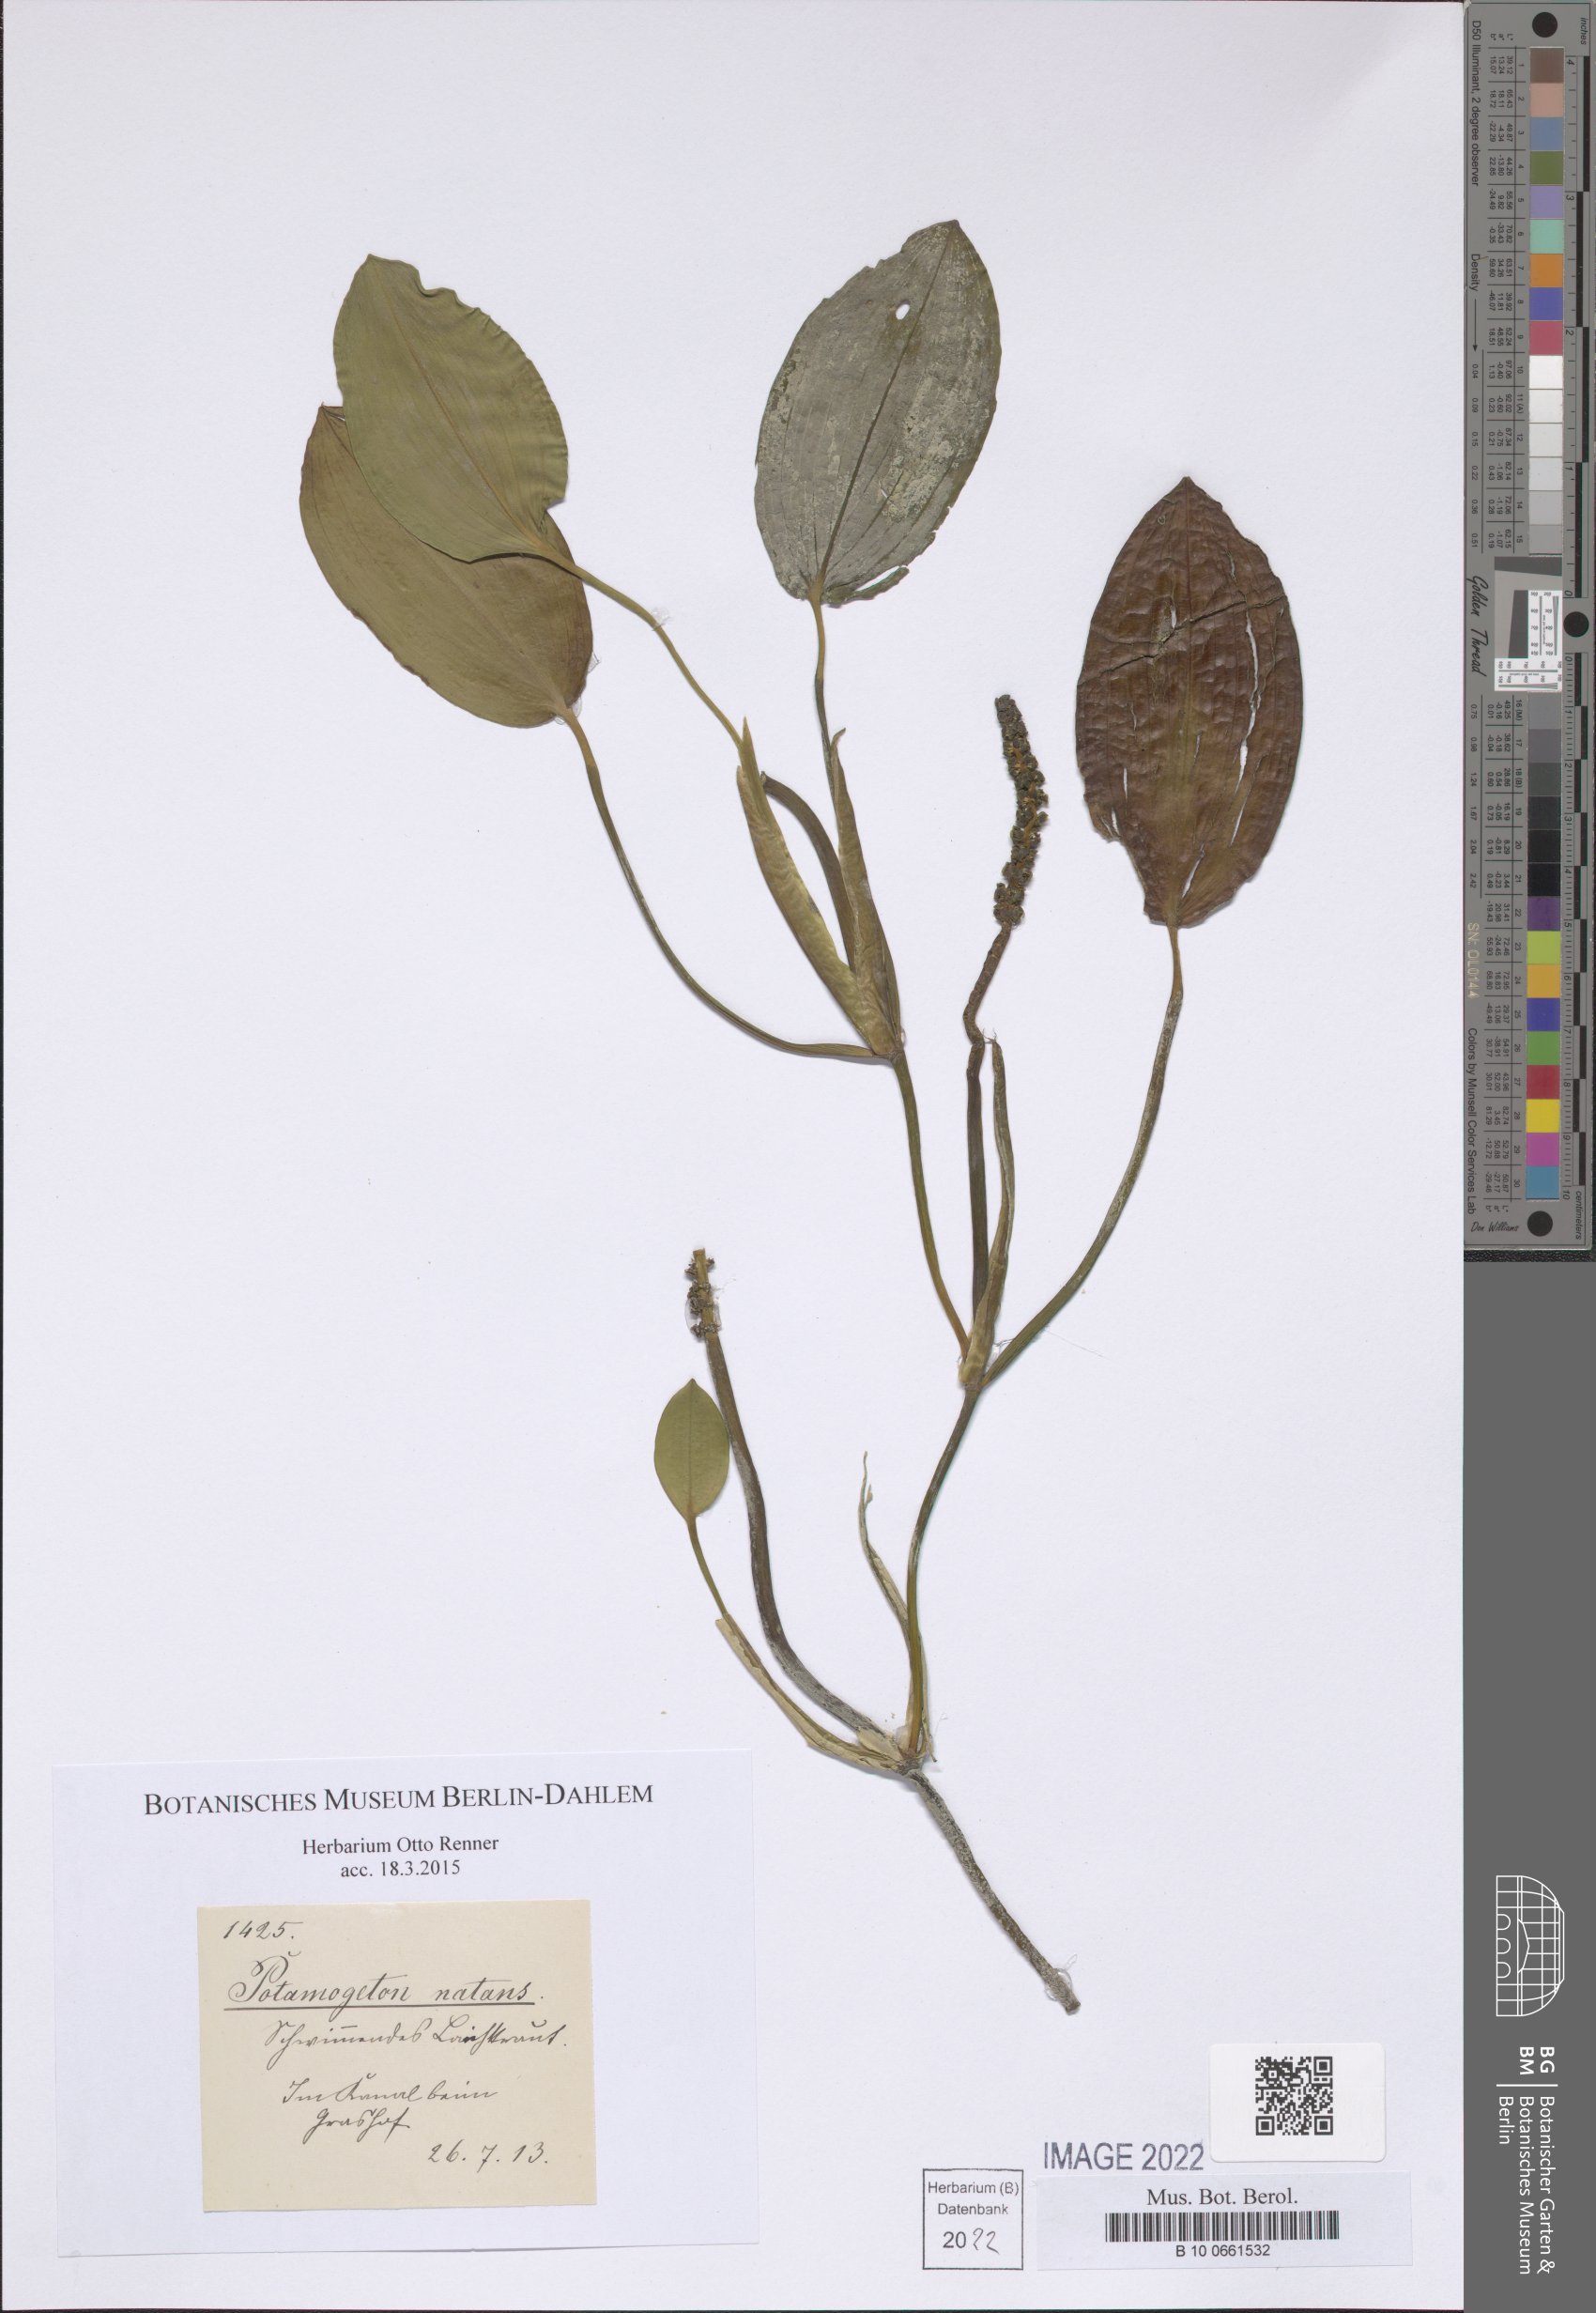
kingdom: Plantae
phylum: Tracheophyta
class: Liliopsida
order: Alismatales
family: Potamogetonaceae
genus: Potamogeton
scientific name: Potamogeton natans
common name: Broad-leaved pondweed
